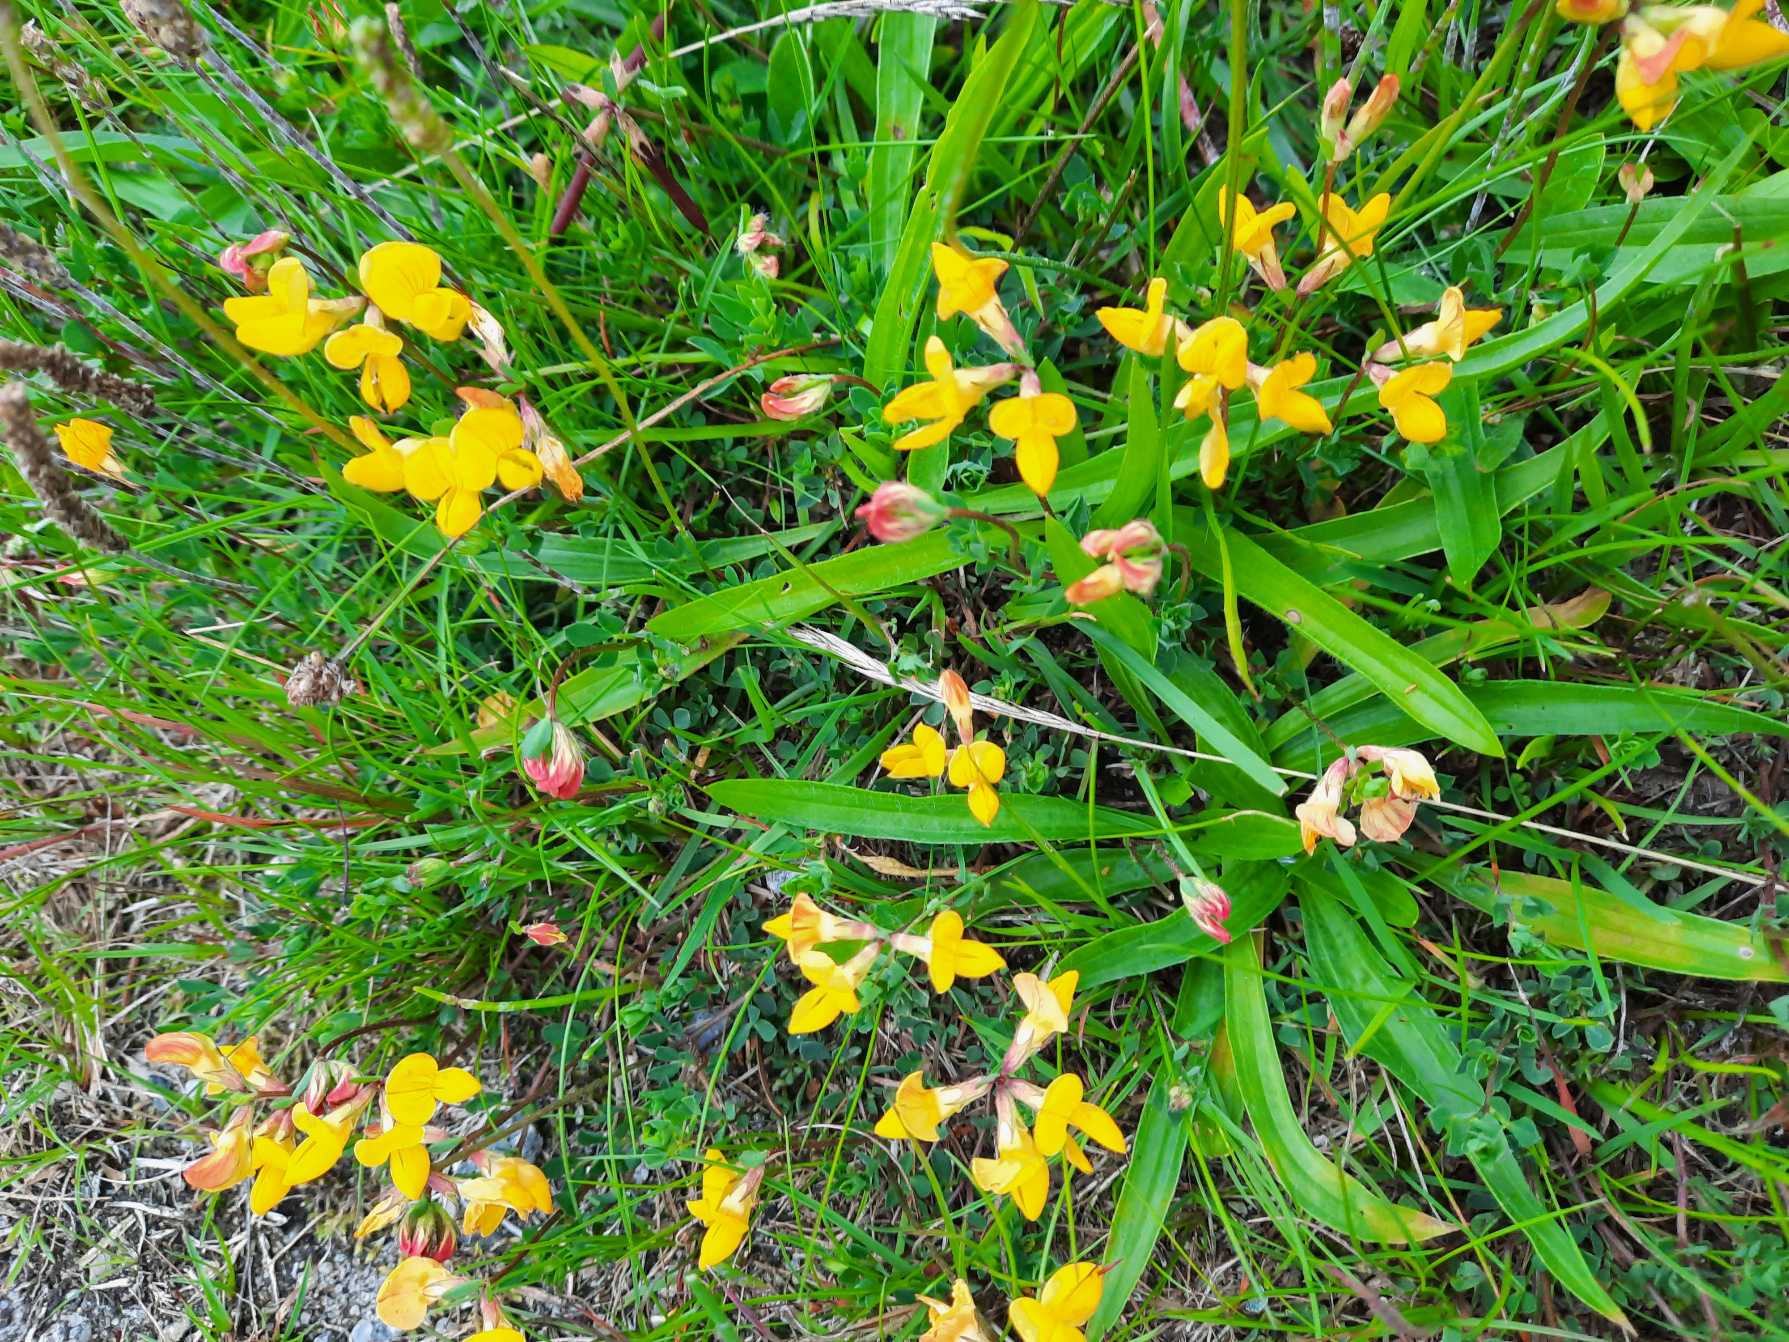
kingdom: Plantae
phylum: Tracheophyta
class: Magnoliopsida
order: Fabales
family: Fabaceae
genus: Lotus
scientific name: Lotus corniculatus
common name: Almindelig kællingetand
